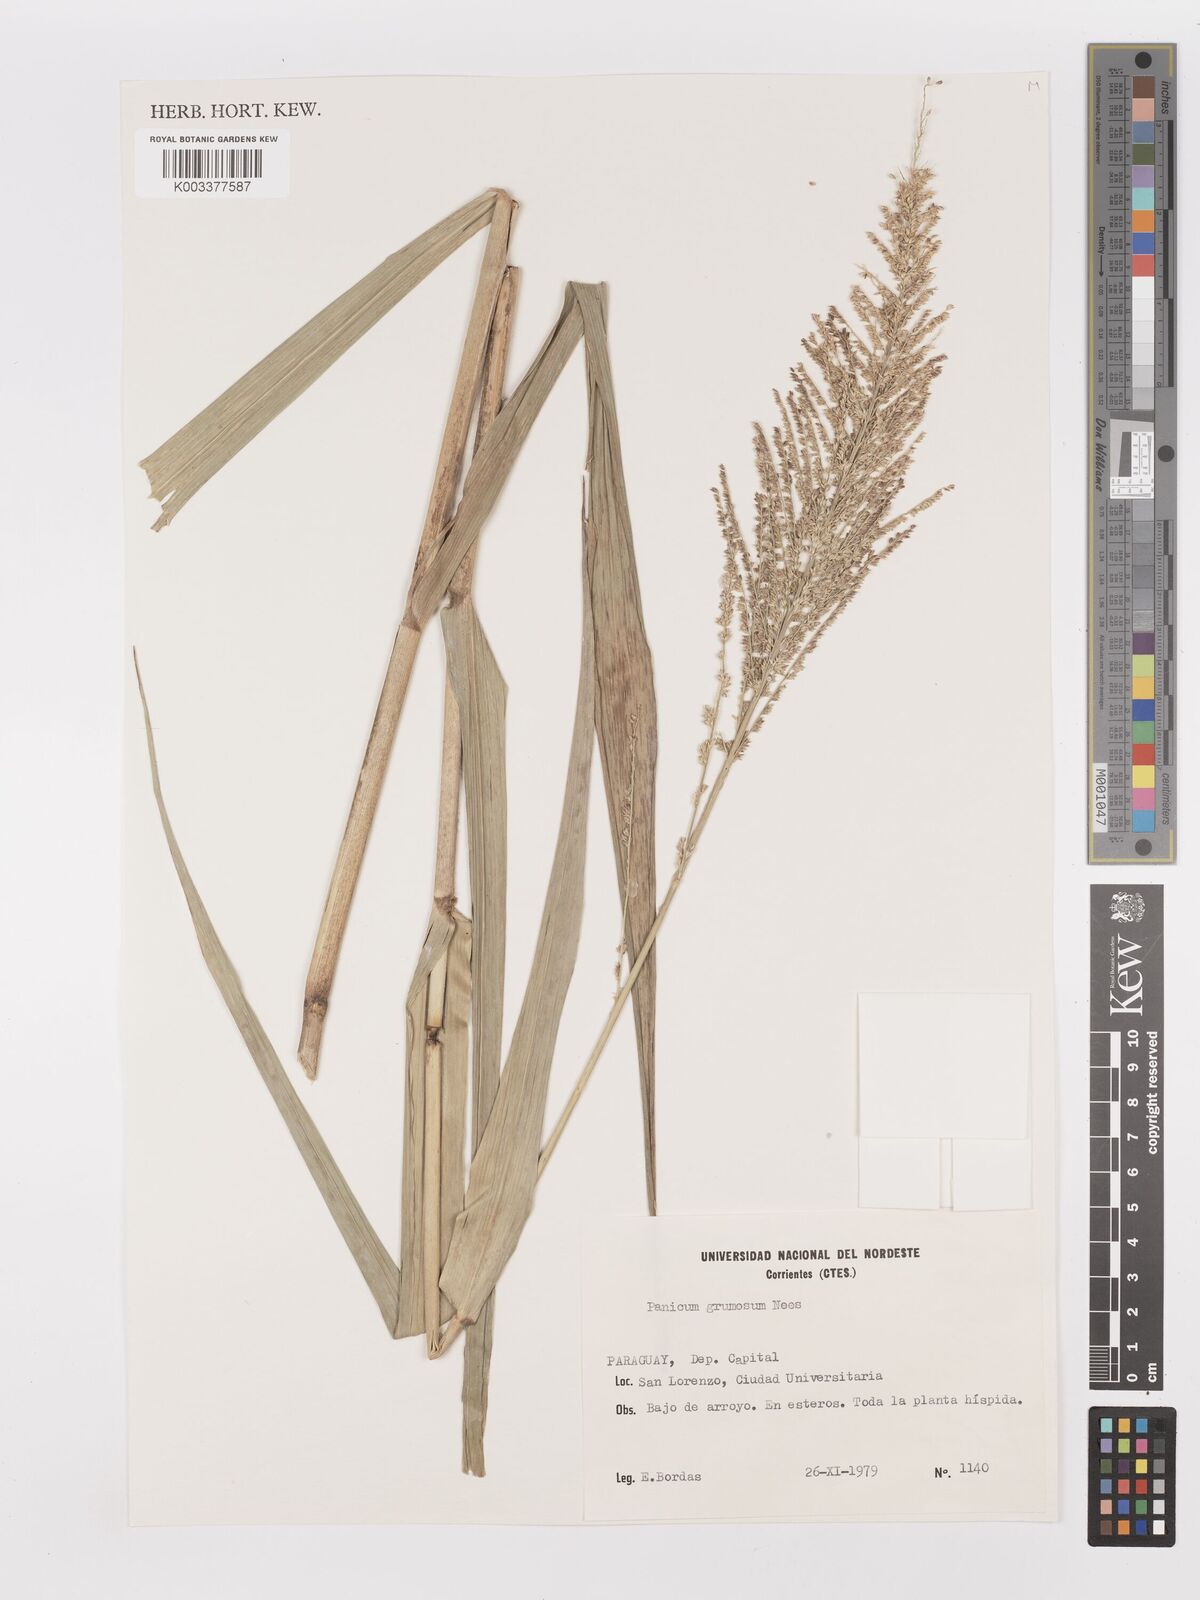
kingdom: Plantae
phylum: Tracheophyta
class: Liliopsida
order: Poales
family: Poaceae
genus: Hymenachne
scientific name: Hymenachne grumosa
